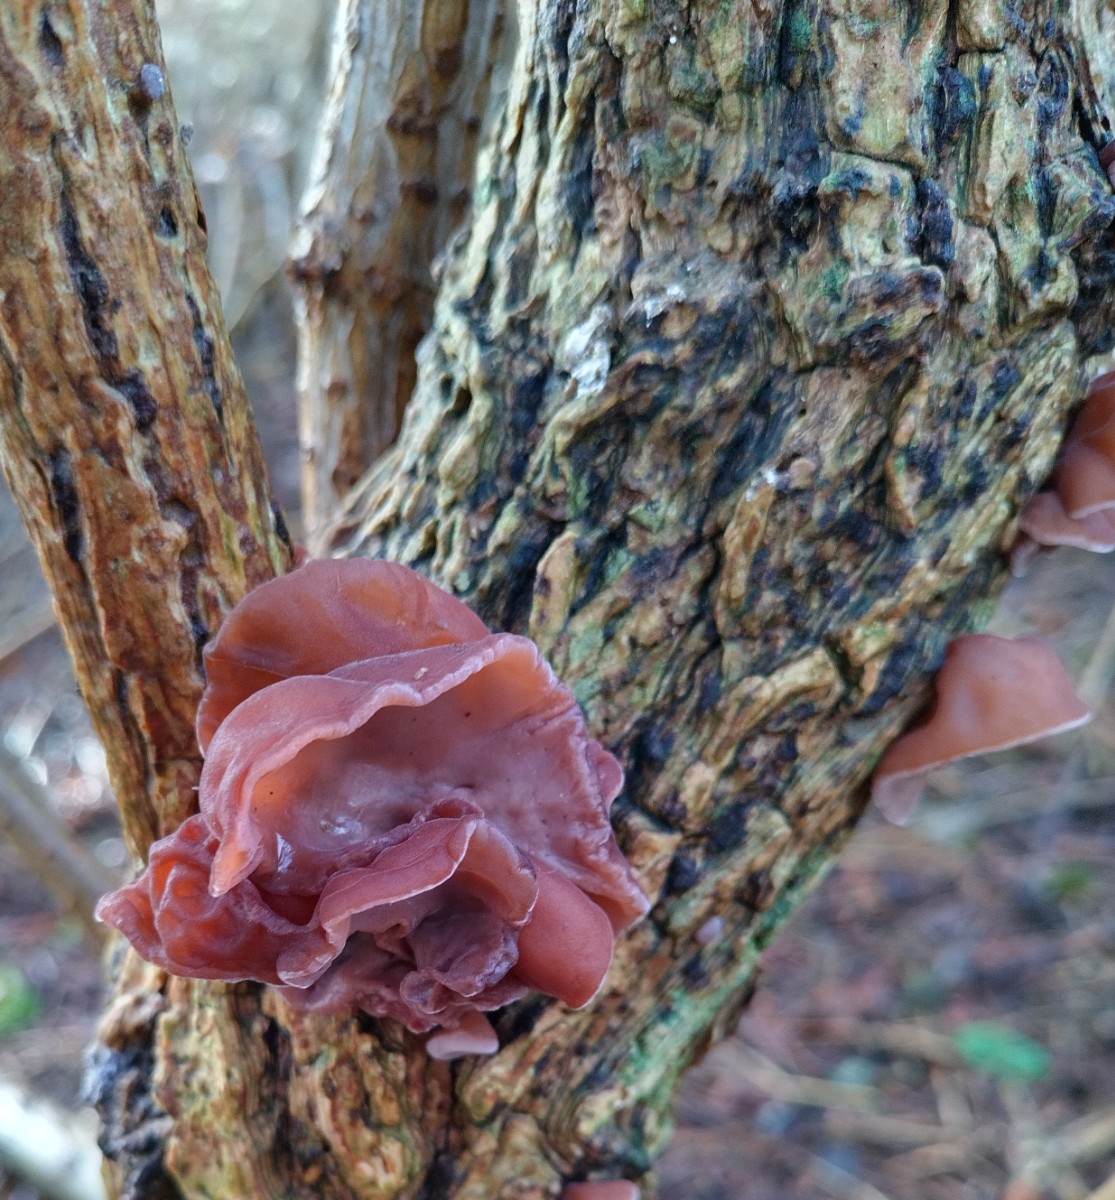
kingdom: Fungi
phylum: Basidiomycota
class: Agaricomycetes
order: Auriculariales
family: Auriculariaceae
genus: Auricularia
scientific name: Auricularia auricula-judae
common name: almindelig judasøre
